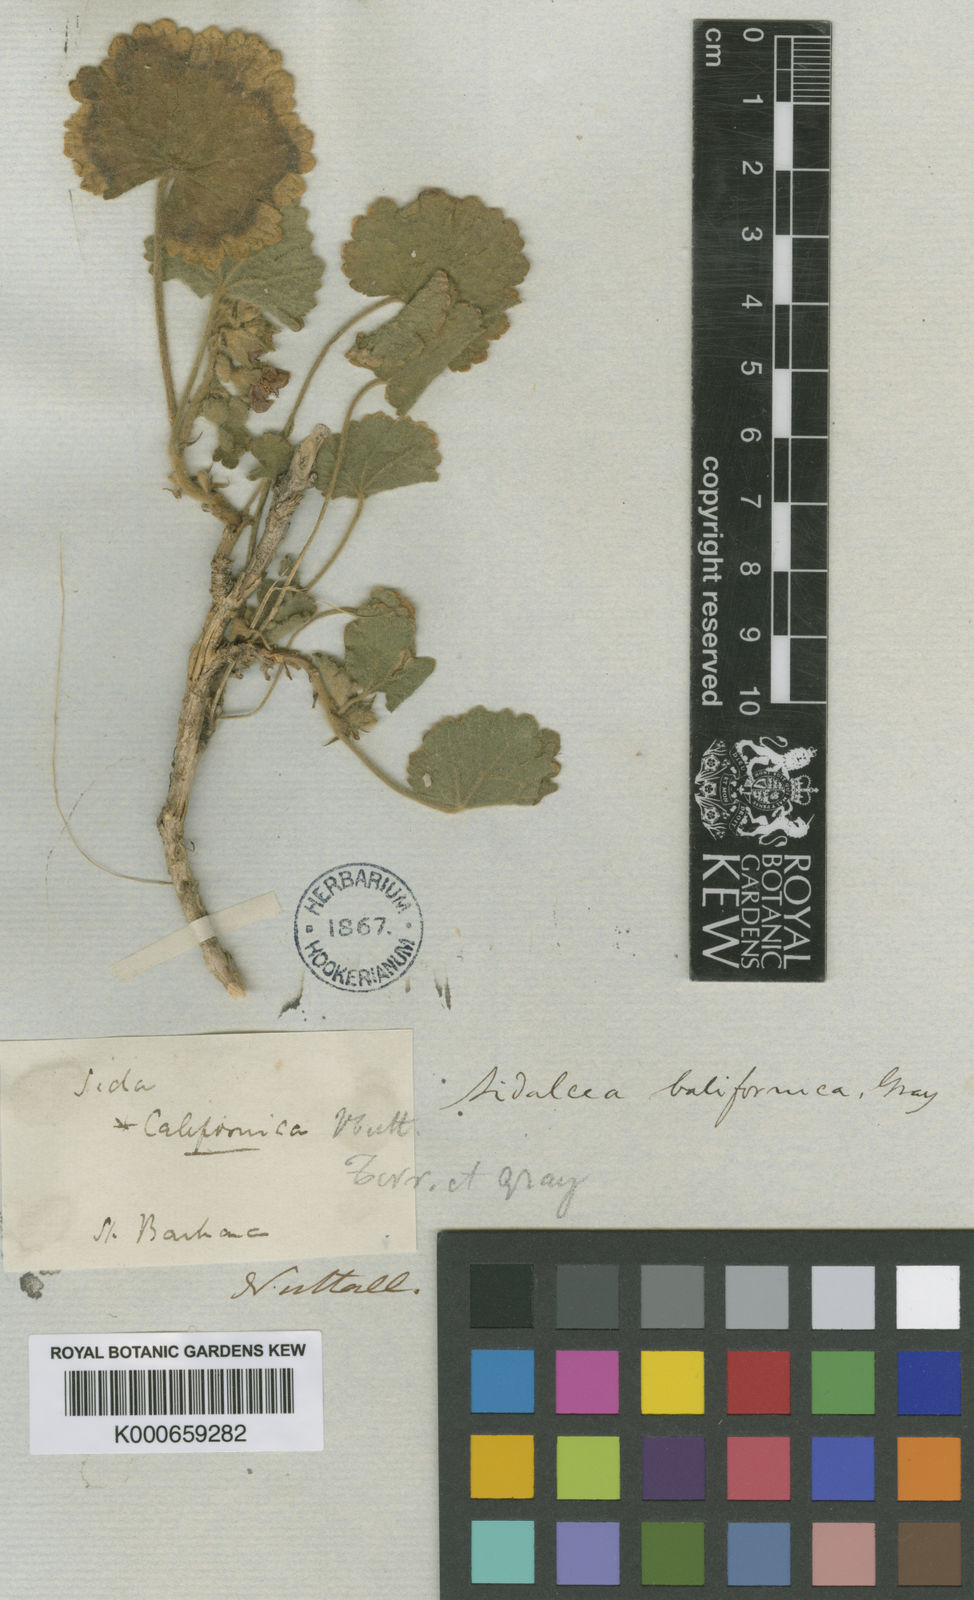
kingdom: Plantae
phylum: Tracheophyta
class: Magnoliopsida
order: Malvales
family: Malvaceae
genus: Sidalcea
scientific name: Sidalcea malviflora
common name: Greek mallow
